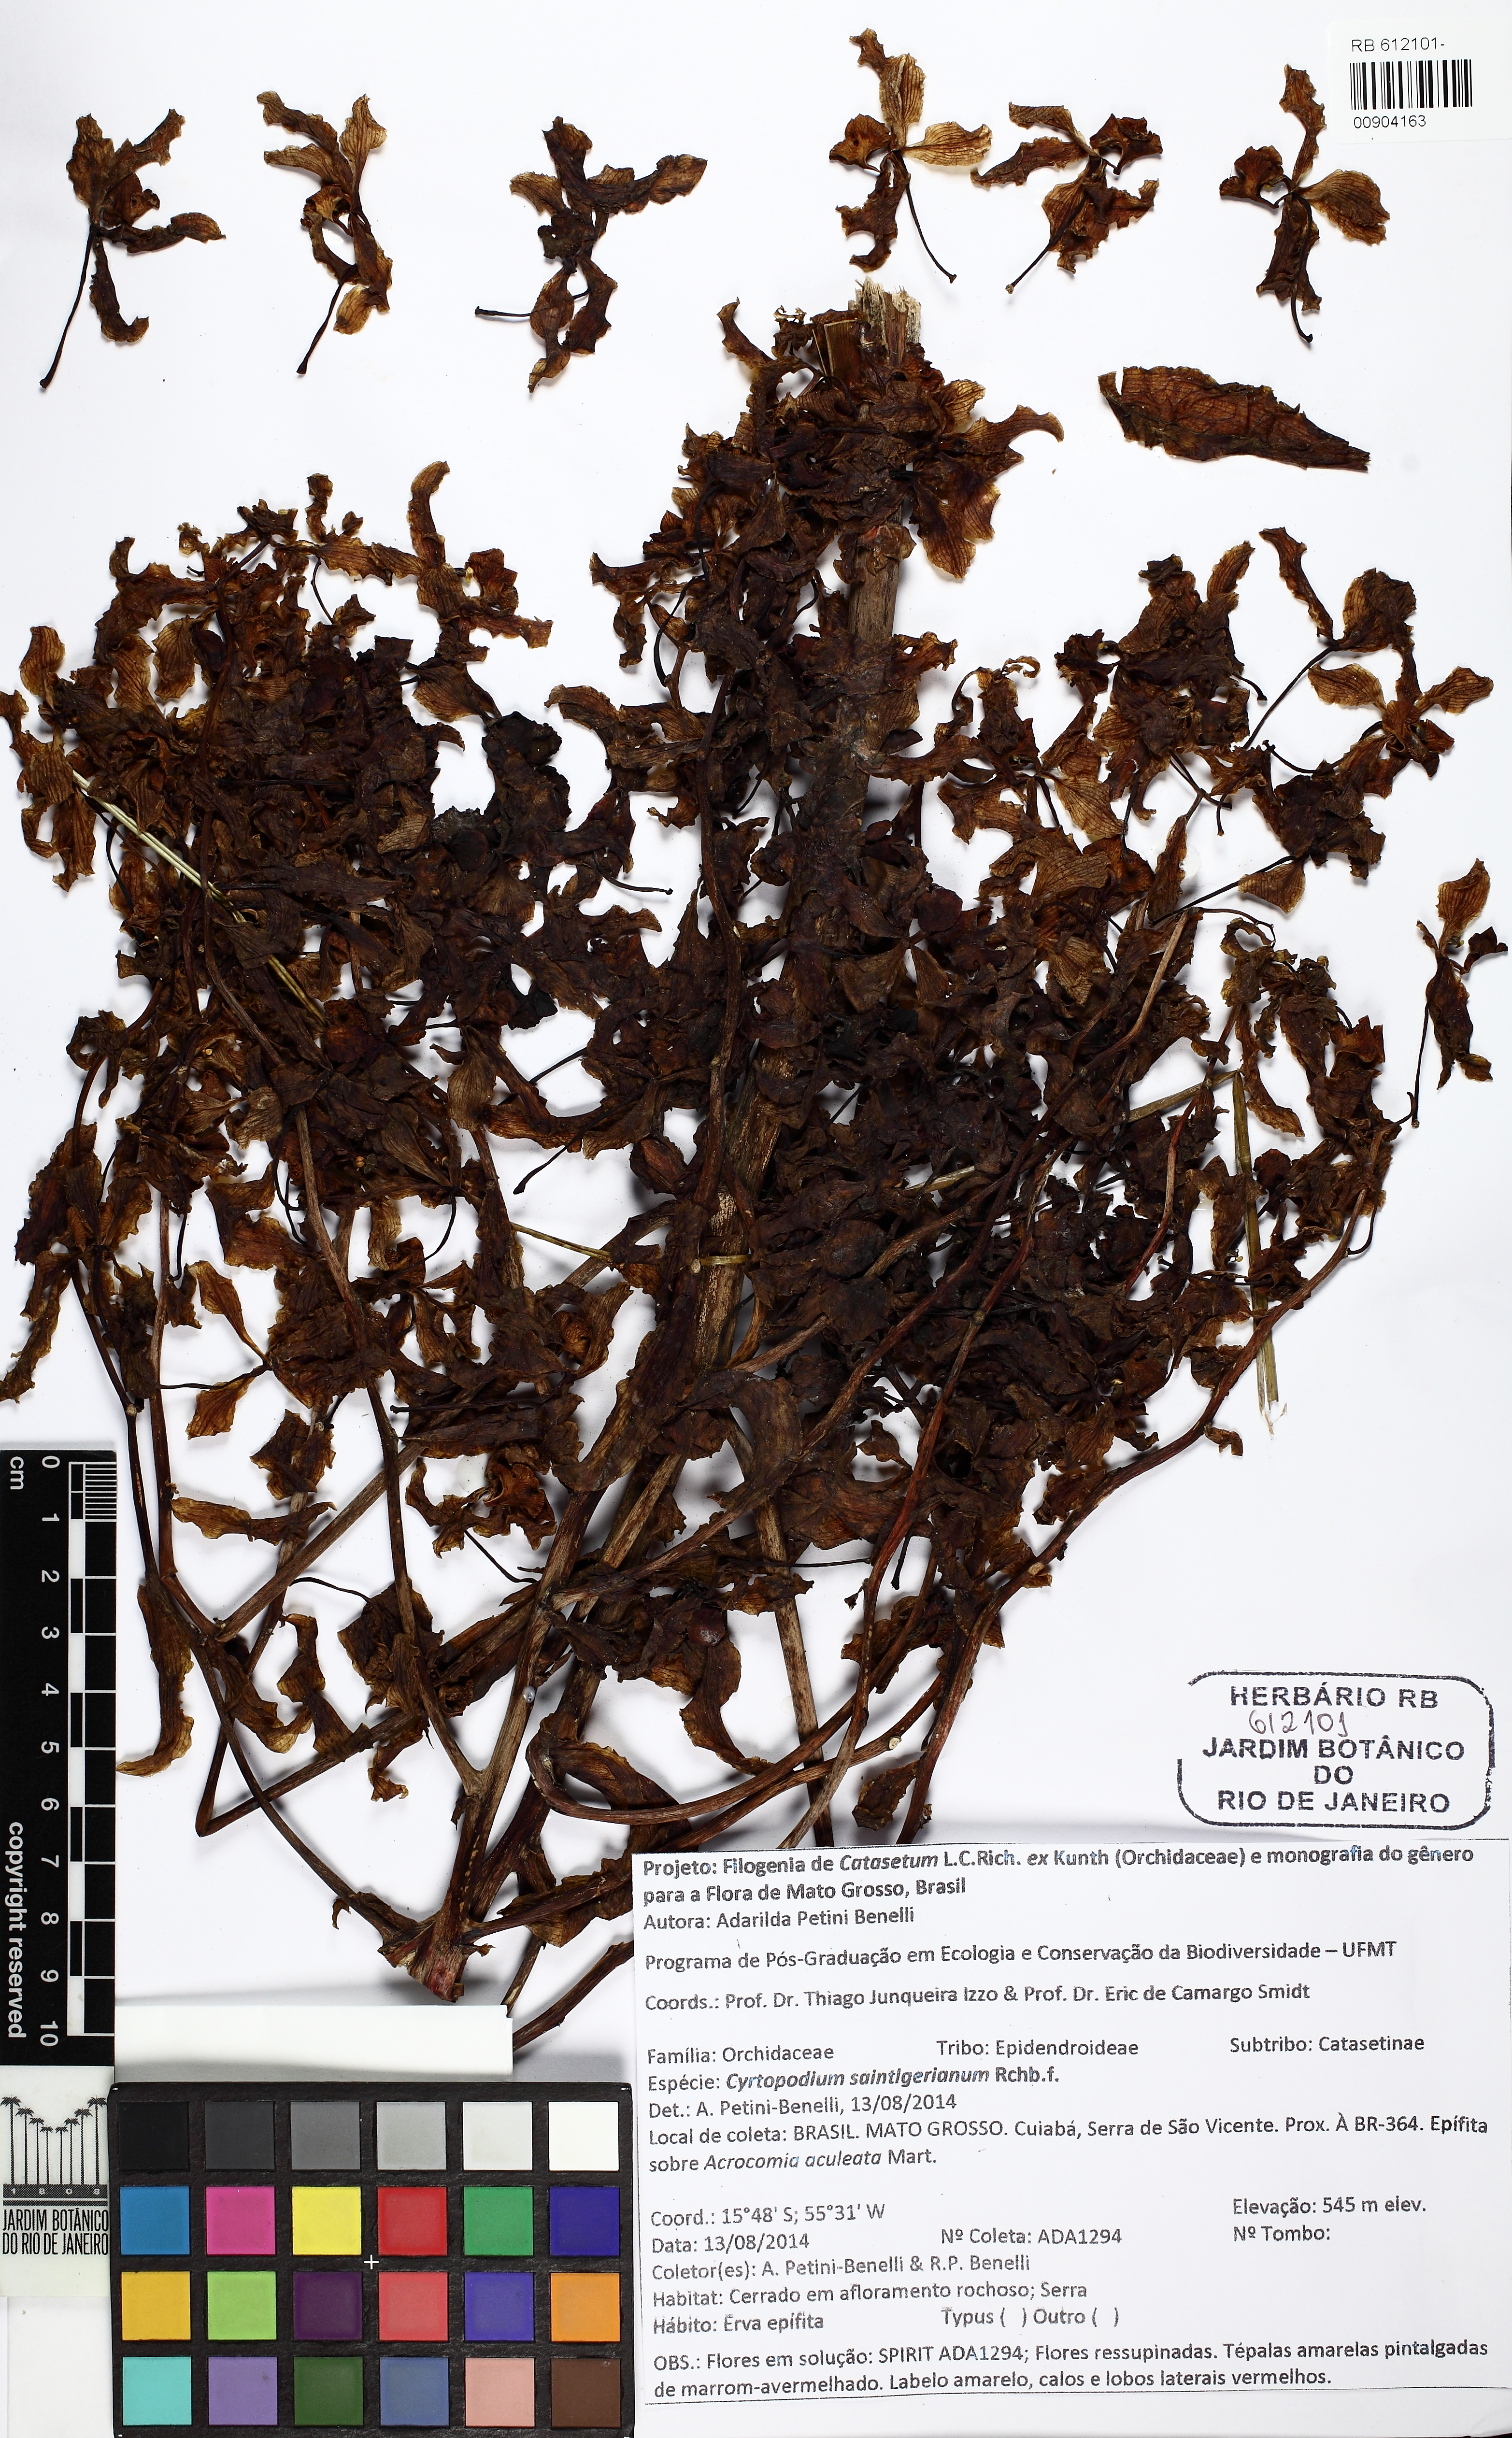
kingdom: Plantae
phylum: Tracheophyta
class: Liliopsida
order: Asparagales
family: Orchidaceae
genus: Cyrtopodium
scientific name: Cyrtopodium saintlegerianum
